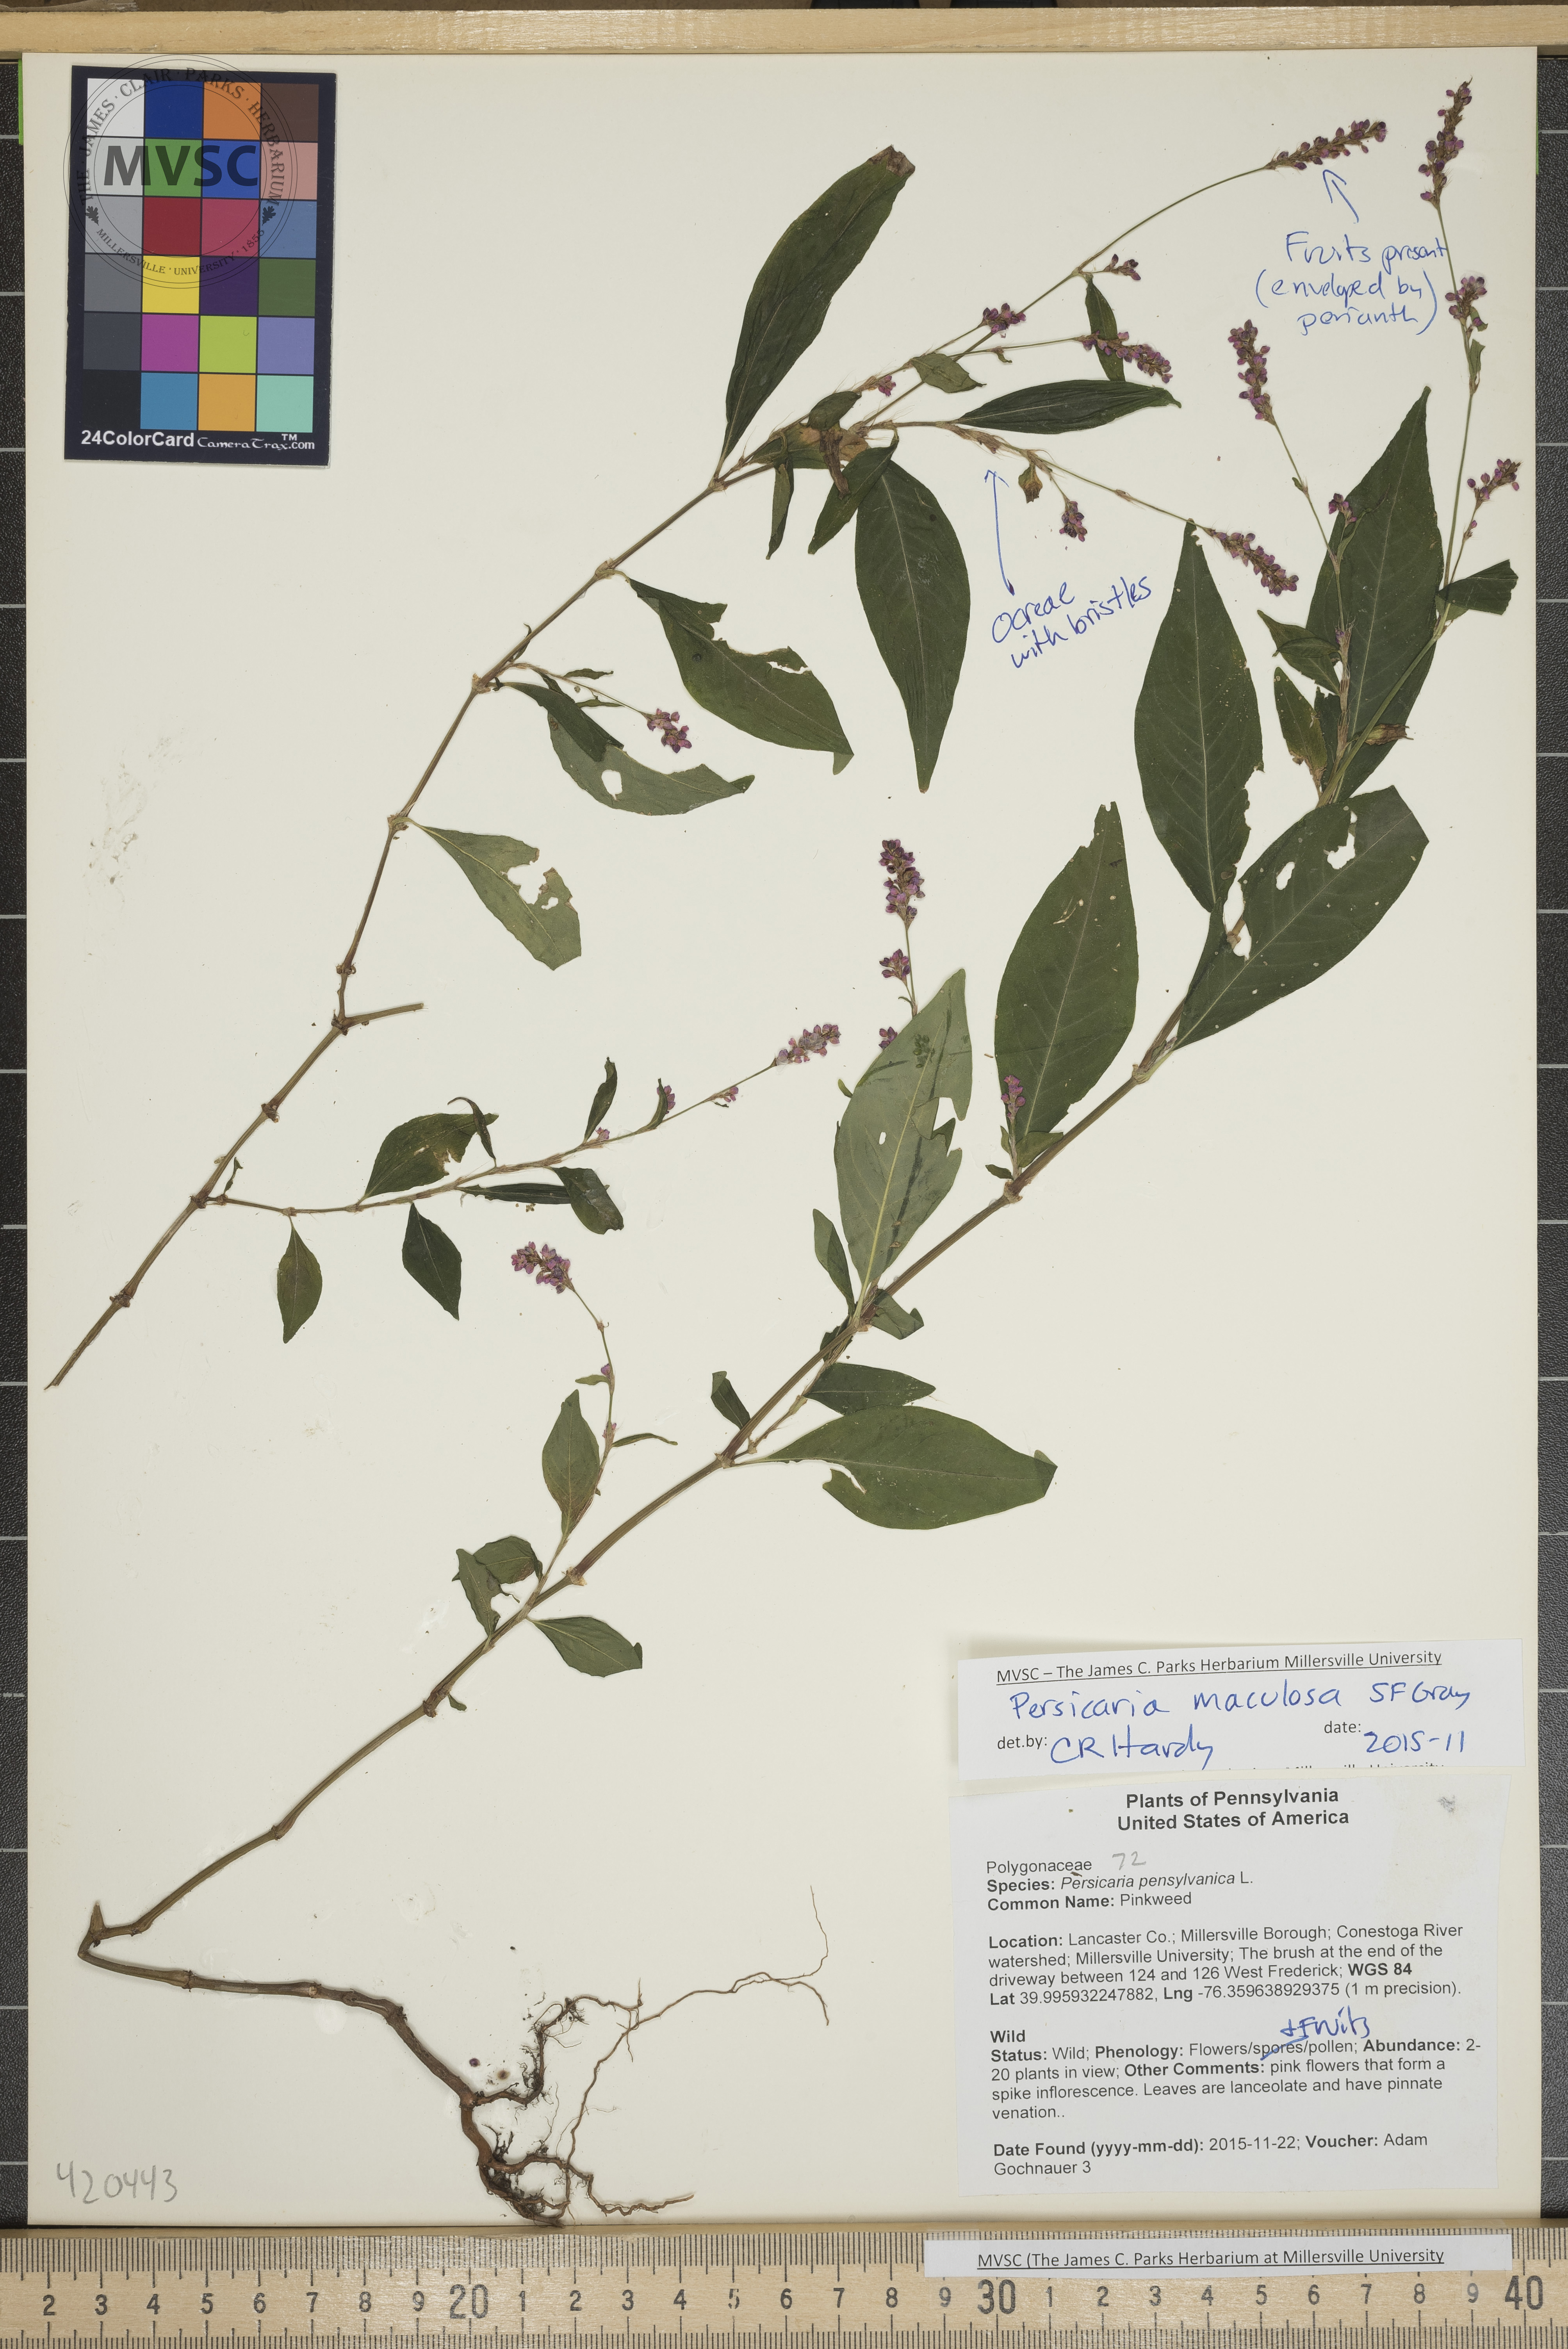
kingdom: Plantae
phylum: Tracheophyta
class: Magnoliopsida
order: Caryophyllales
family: Polygonaceae
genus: Persicaria
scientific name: Persicaria maculosa
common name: Smartweed
